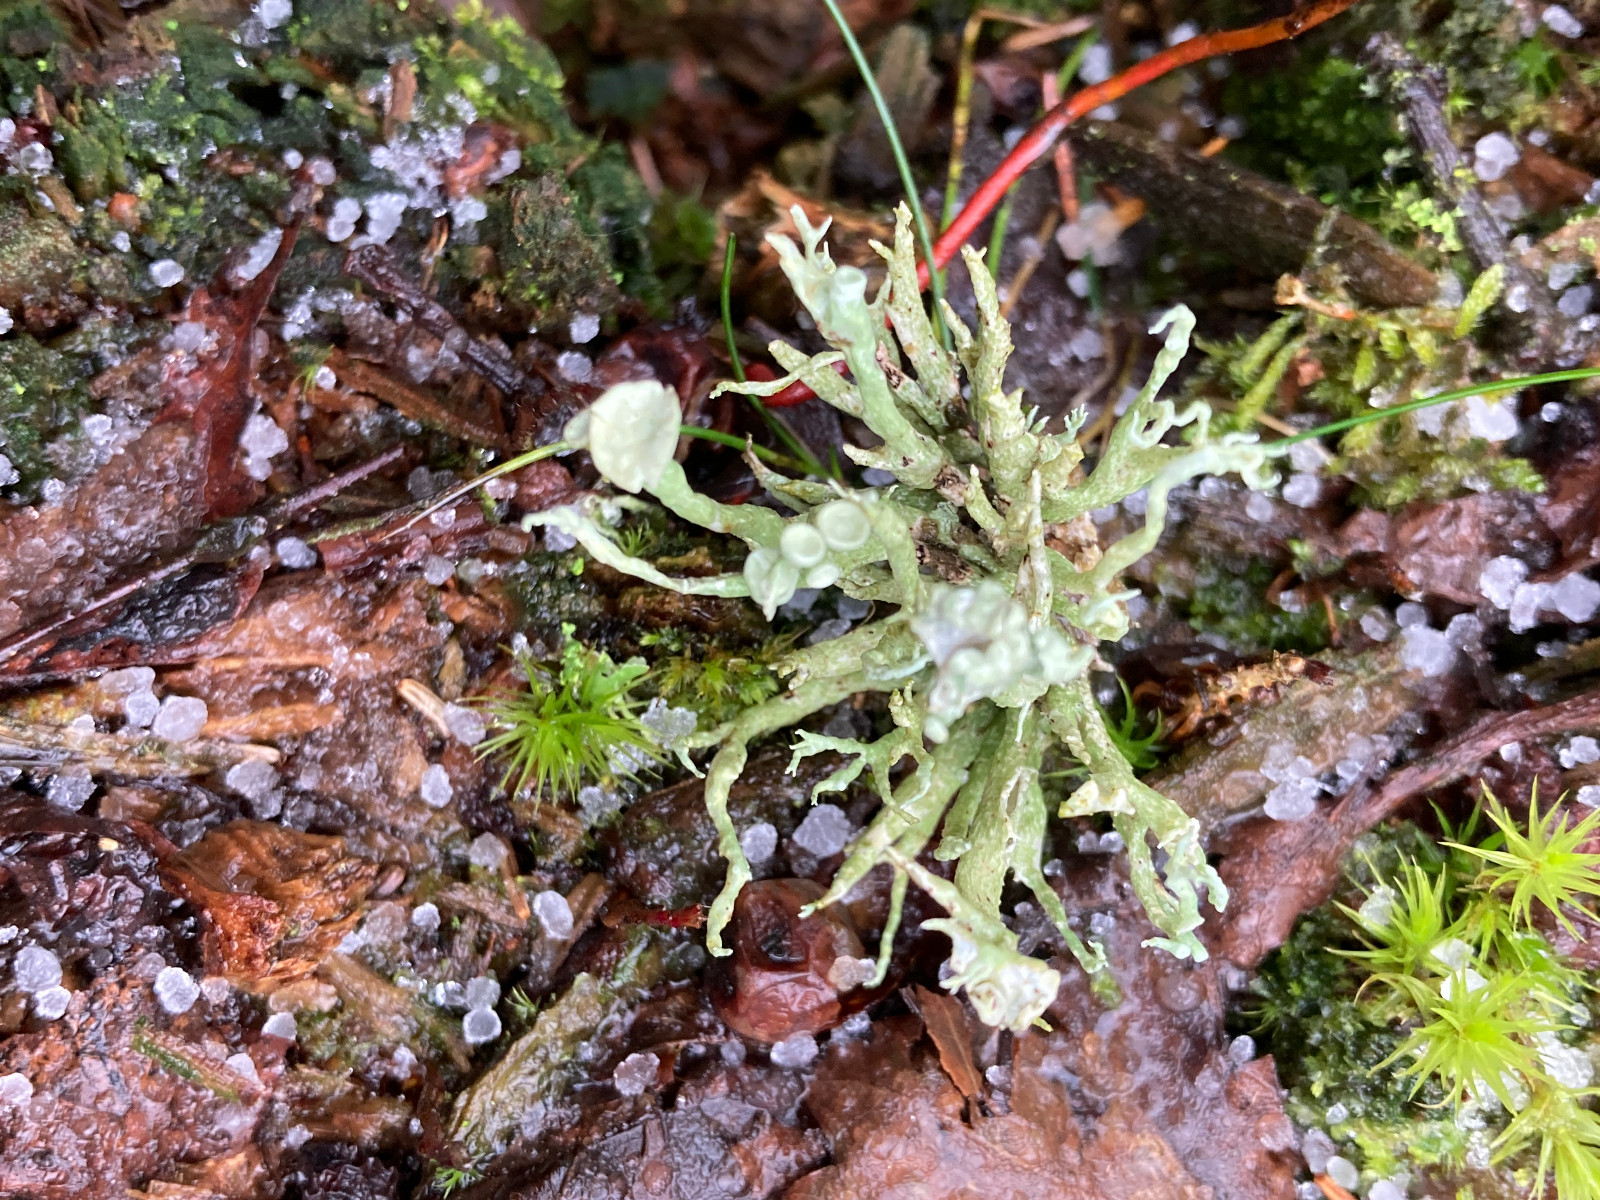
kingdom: Fungi
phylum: Ascomycota
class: Lecanoromycetes
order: Lecanorales
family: Ramalinaceae
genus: Ramalina
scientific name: Ramalina fastigiata
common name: tue-grenlav
